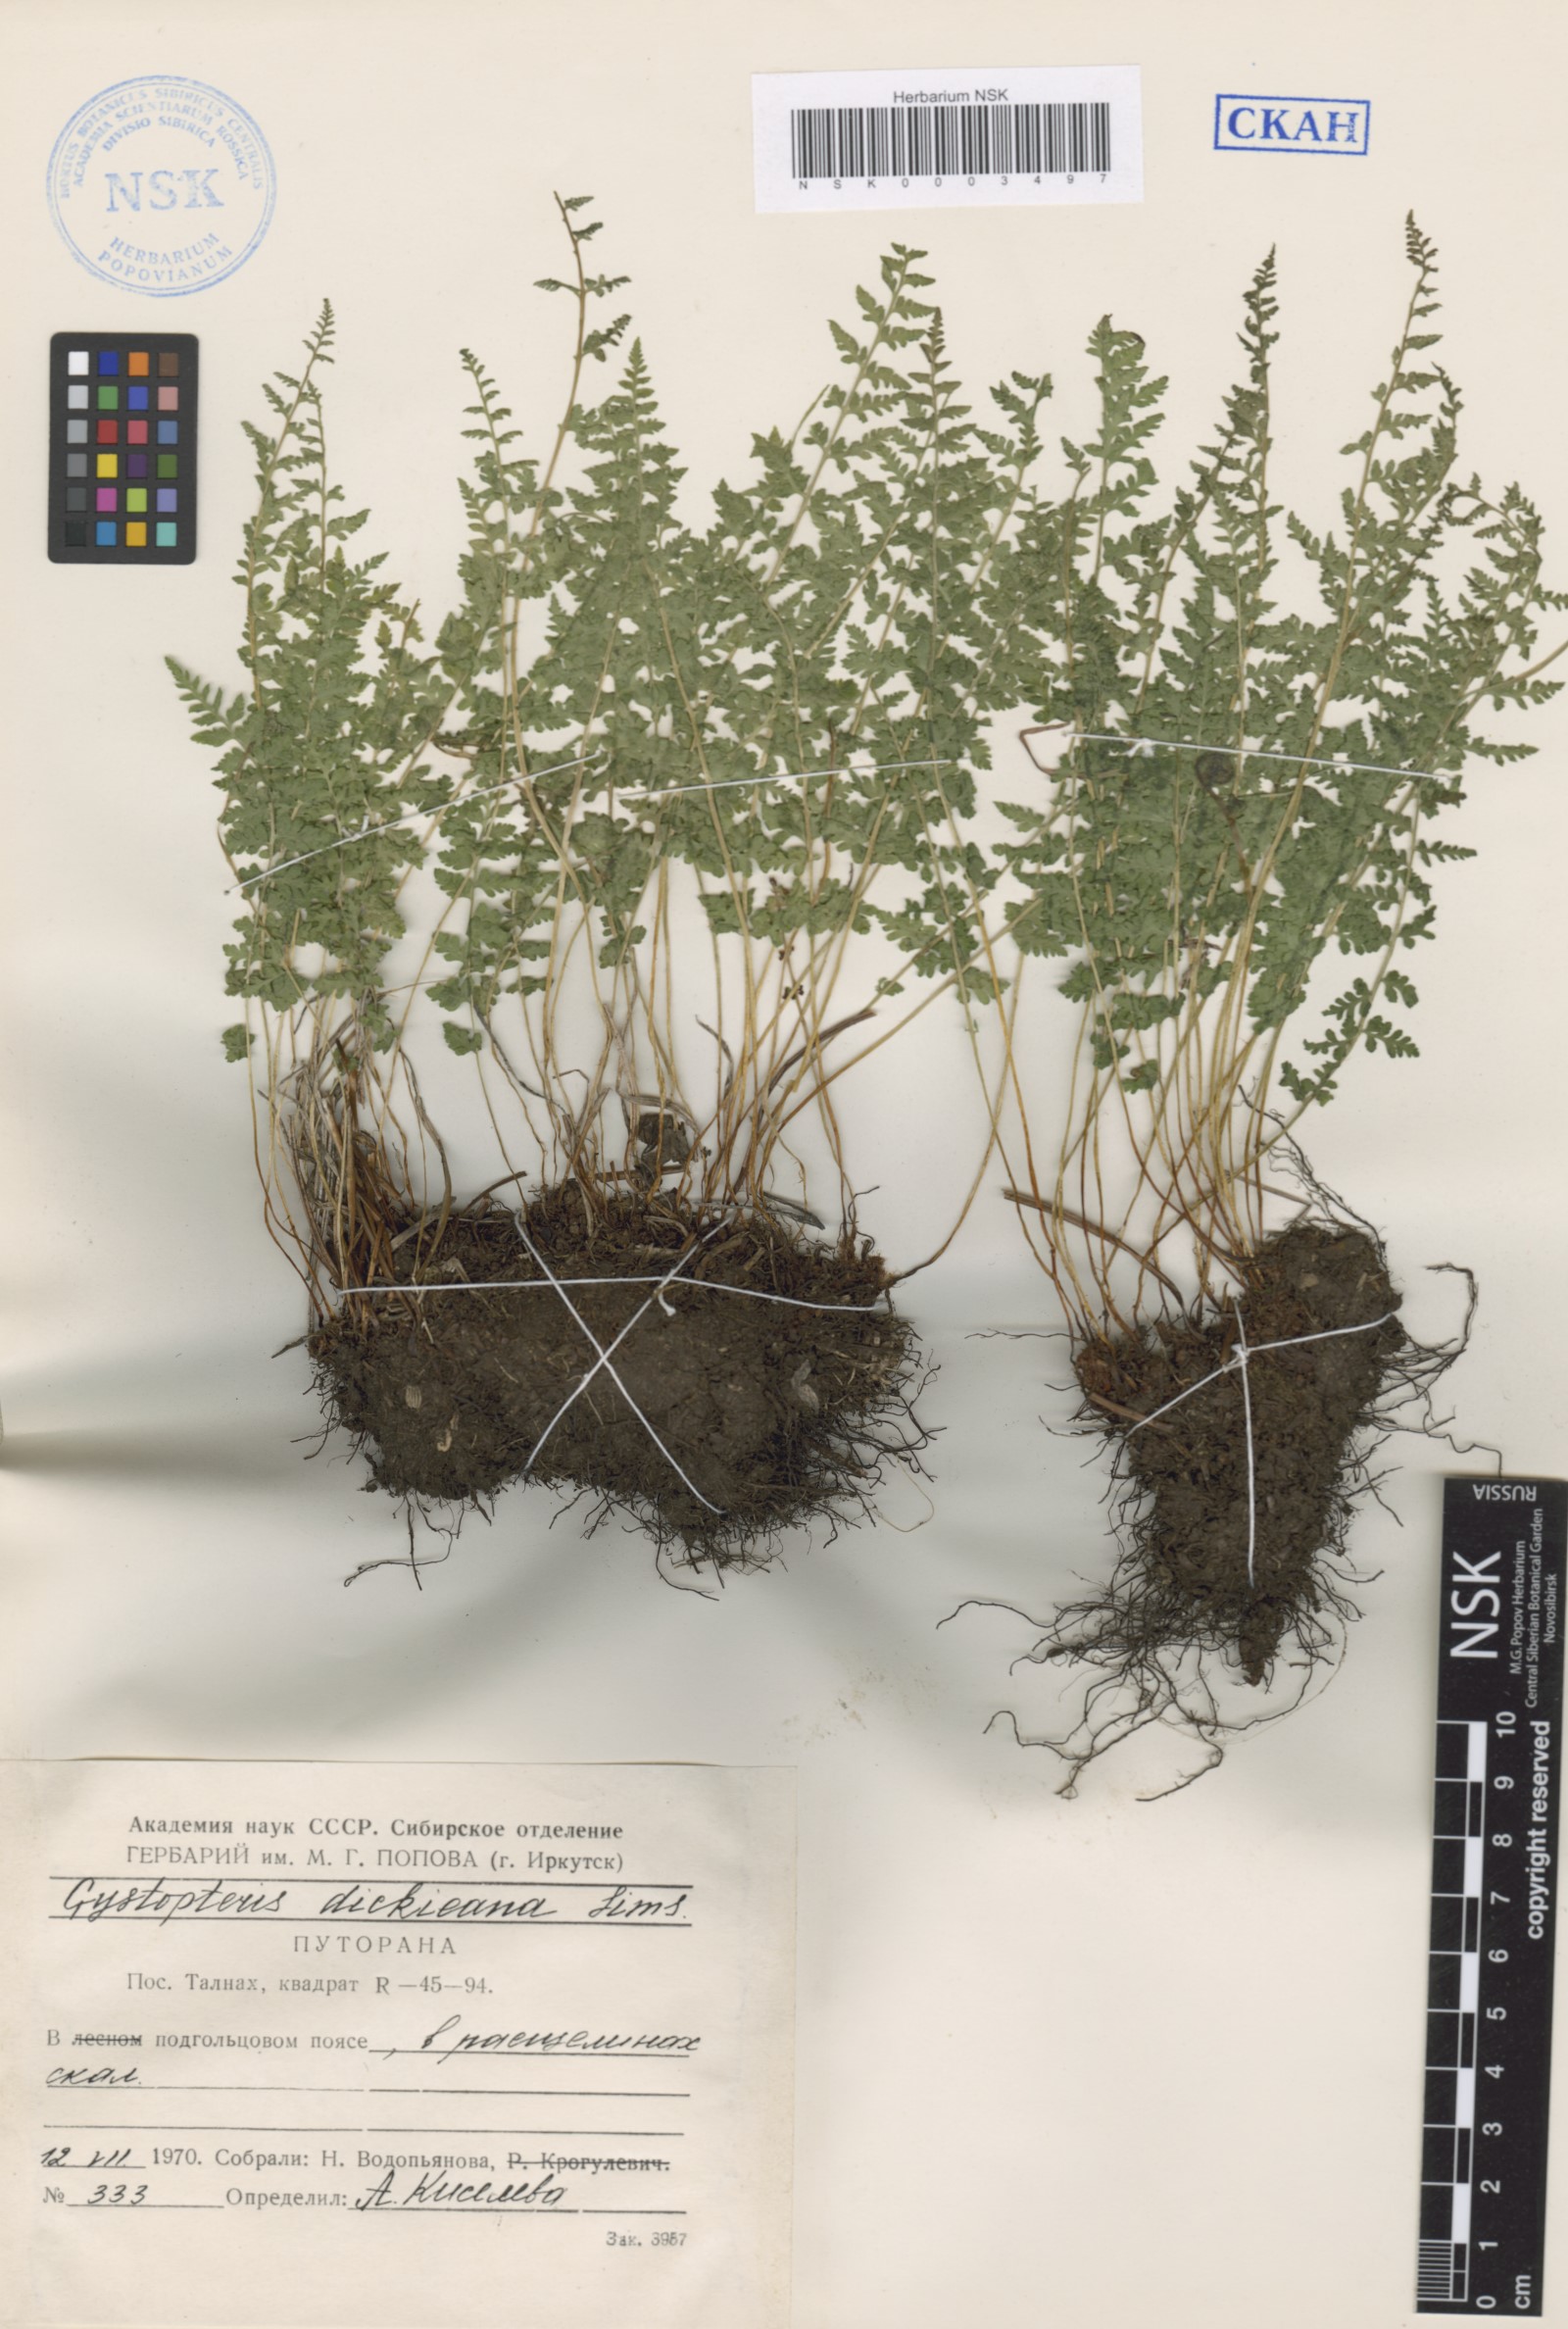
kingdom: Plantae
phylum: Tracheophyta
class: Polypodiopsida
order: Polypodiales
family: Cystopteridaceae
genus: Cystopteris
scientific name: Cystopteris dickieana
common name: Dickie's bladder-fern
